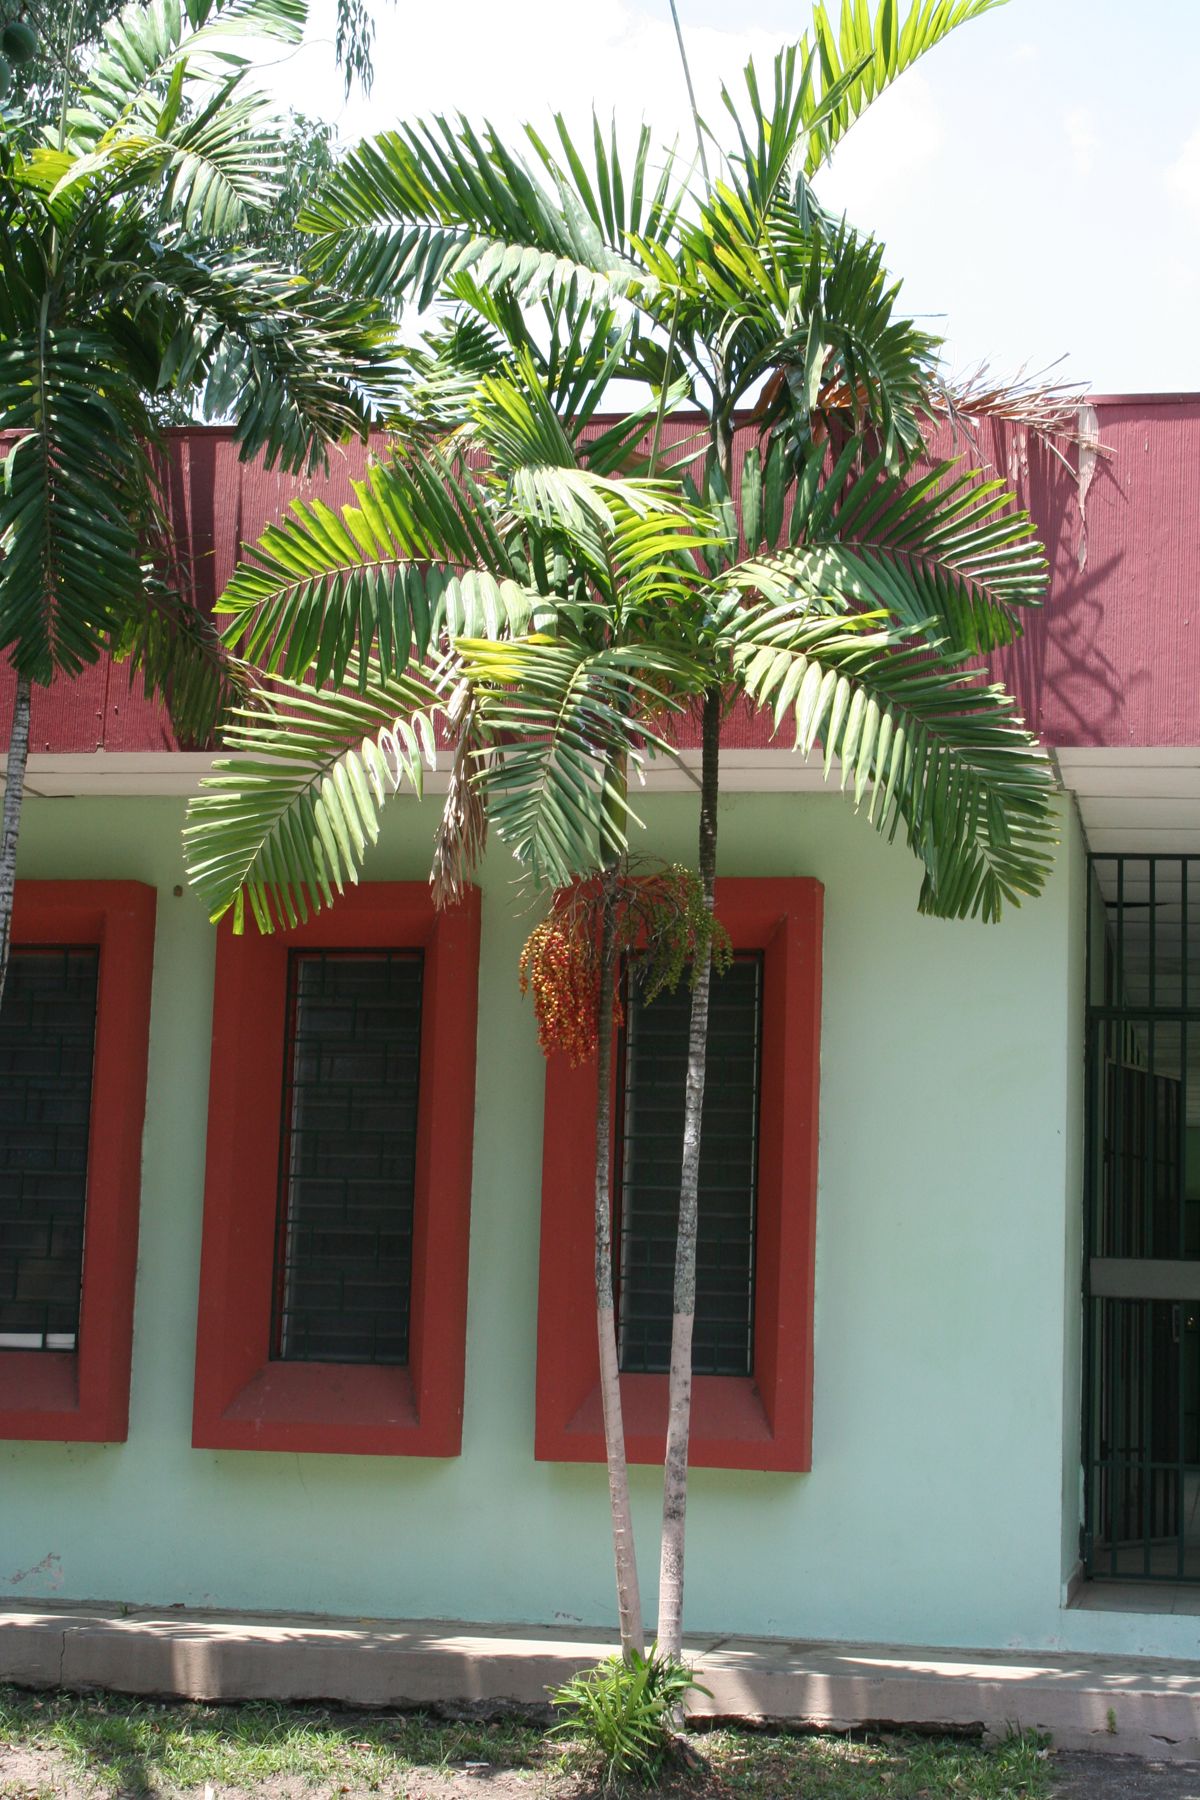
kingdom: Plantae
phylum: Tracheophyta
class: Liliopsida
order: Arecales
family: Arecaceae
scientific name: Arecaceae
